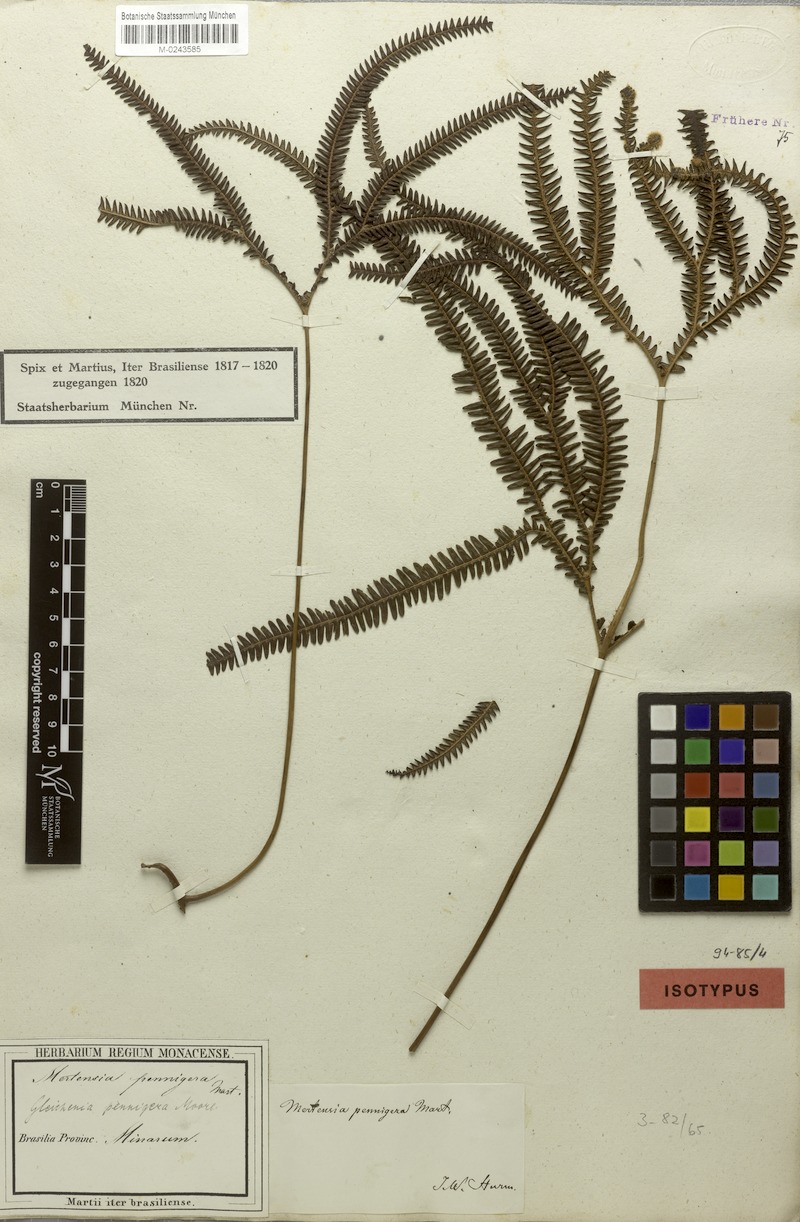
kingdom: Plantae
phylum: Tracheophyta
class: Polypodiopsida
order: Gleicheniales
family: Gleicheniaceae
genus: Sticherus
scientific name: Sticherus pruinosus
